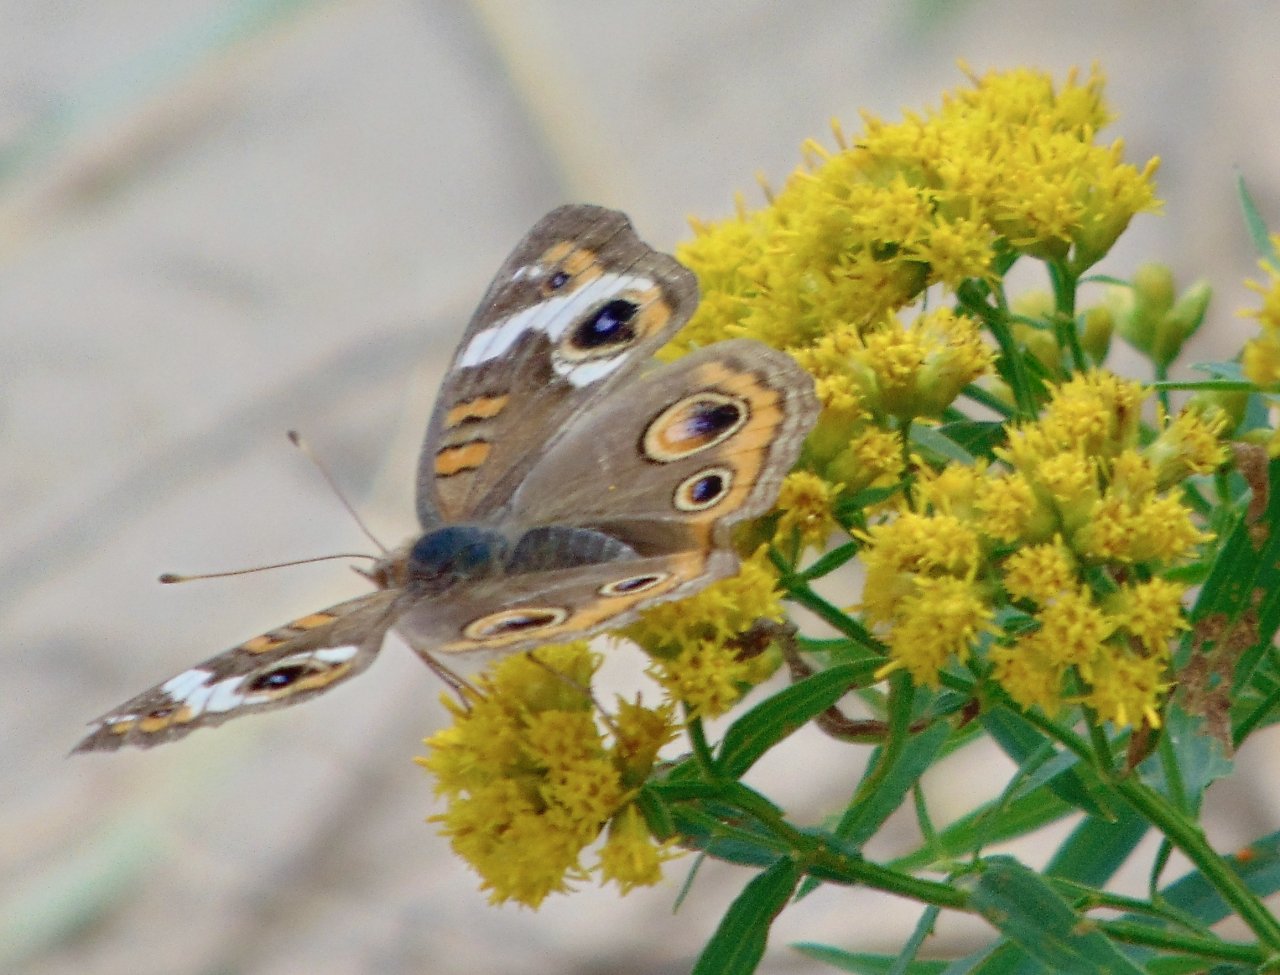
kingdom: Animalia
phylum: Arthropoda
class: Insecta
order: Lepidoptera
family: Nymphalidae
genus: Junonia
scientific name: Junonia coenia
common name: Common Buckeye
